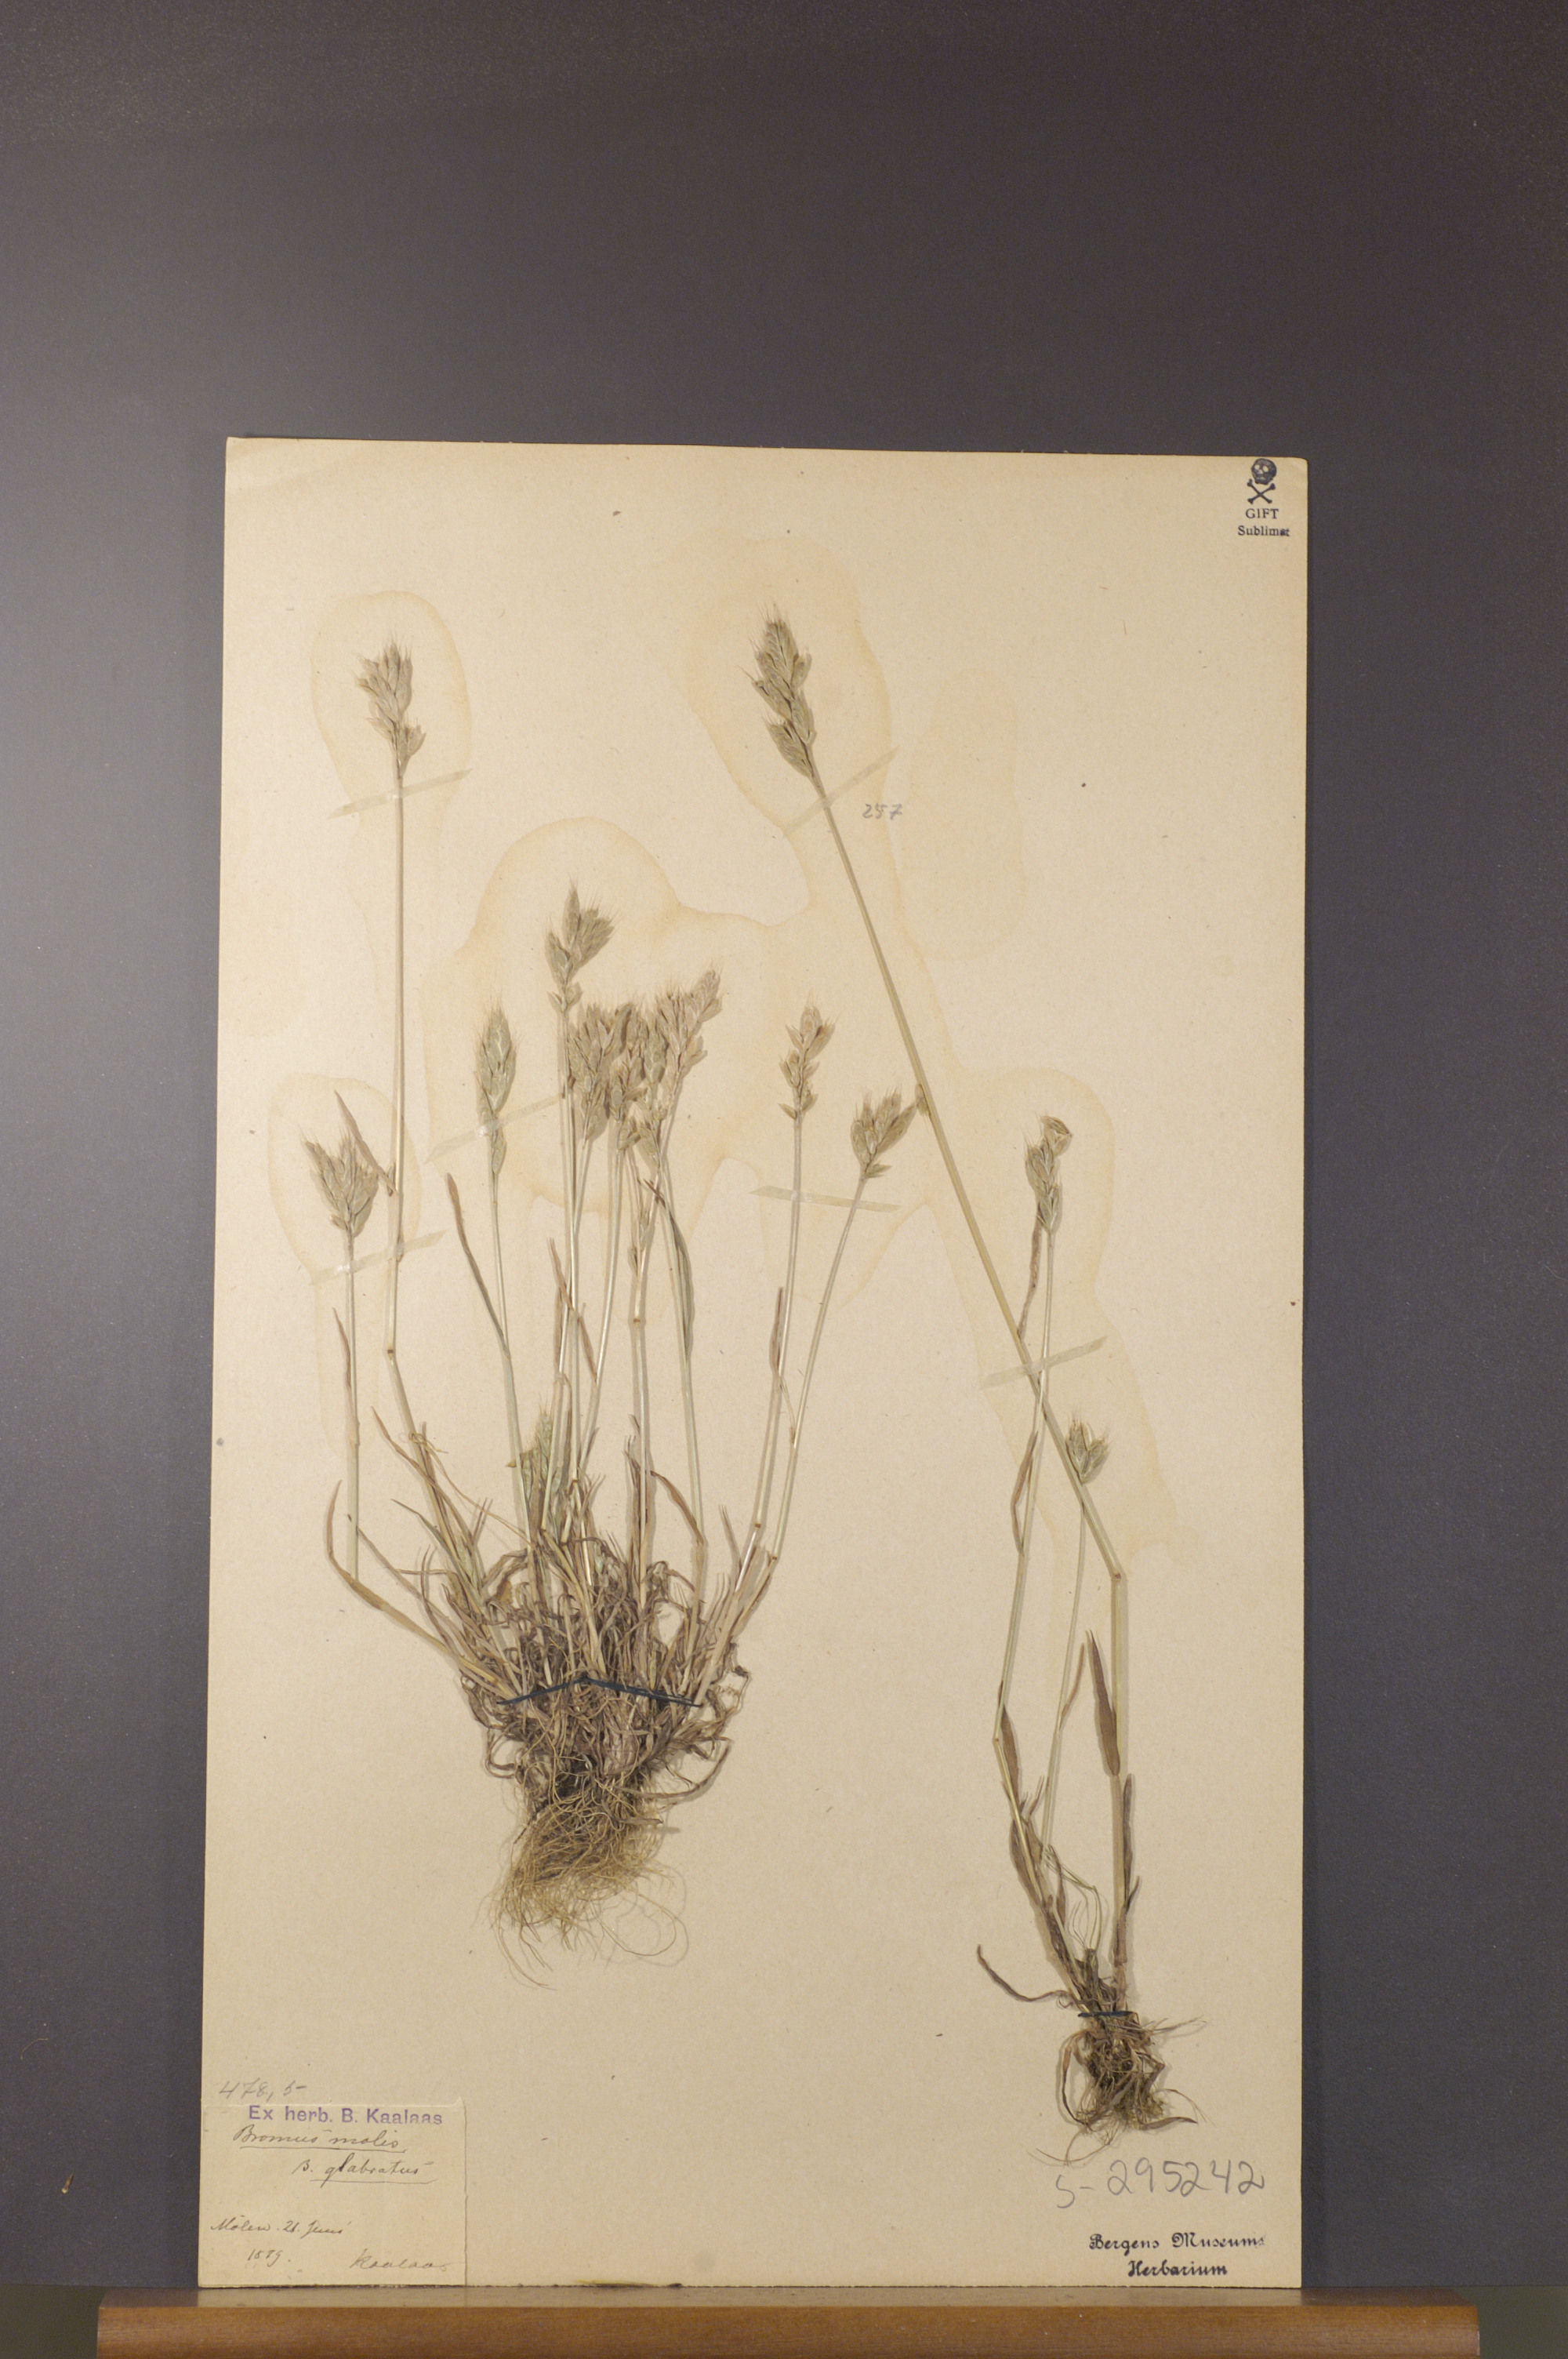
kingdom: Plantae
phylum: Tracheophyta
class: Liliopsida
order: Poales
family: Poaceae
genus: Bromus
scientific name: Bromus hordeaceus
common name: Soft brome
